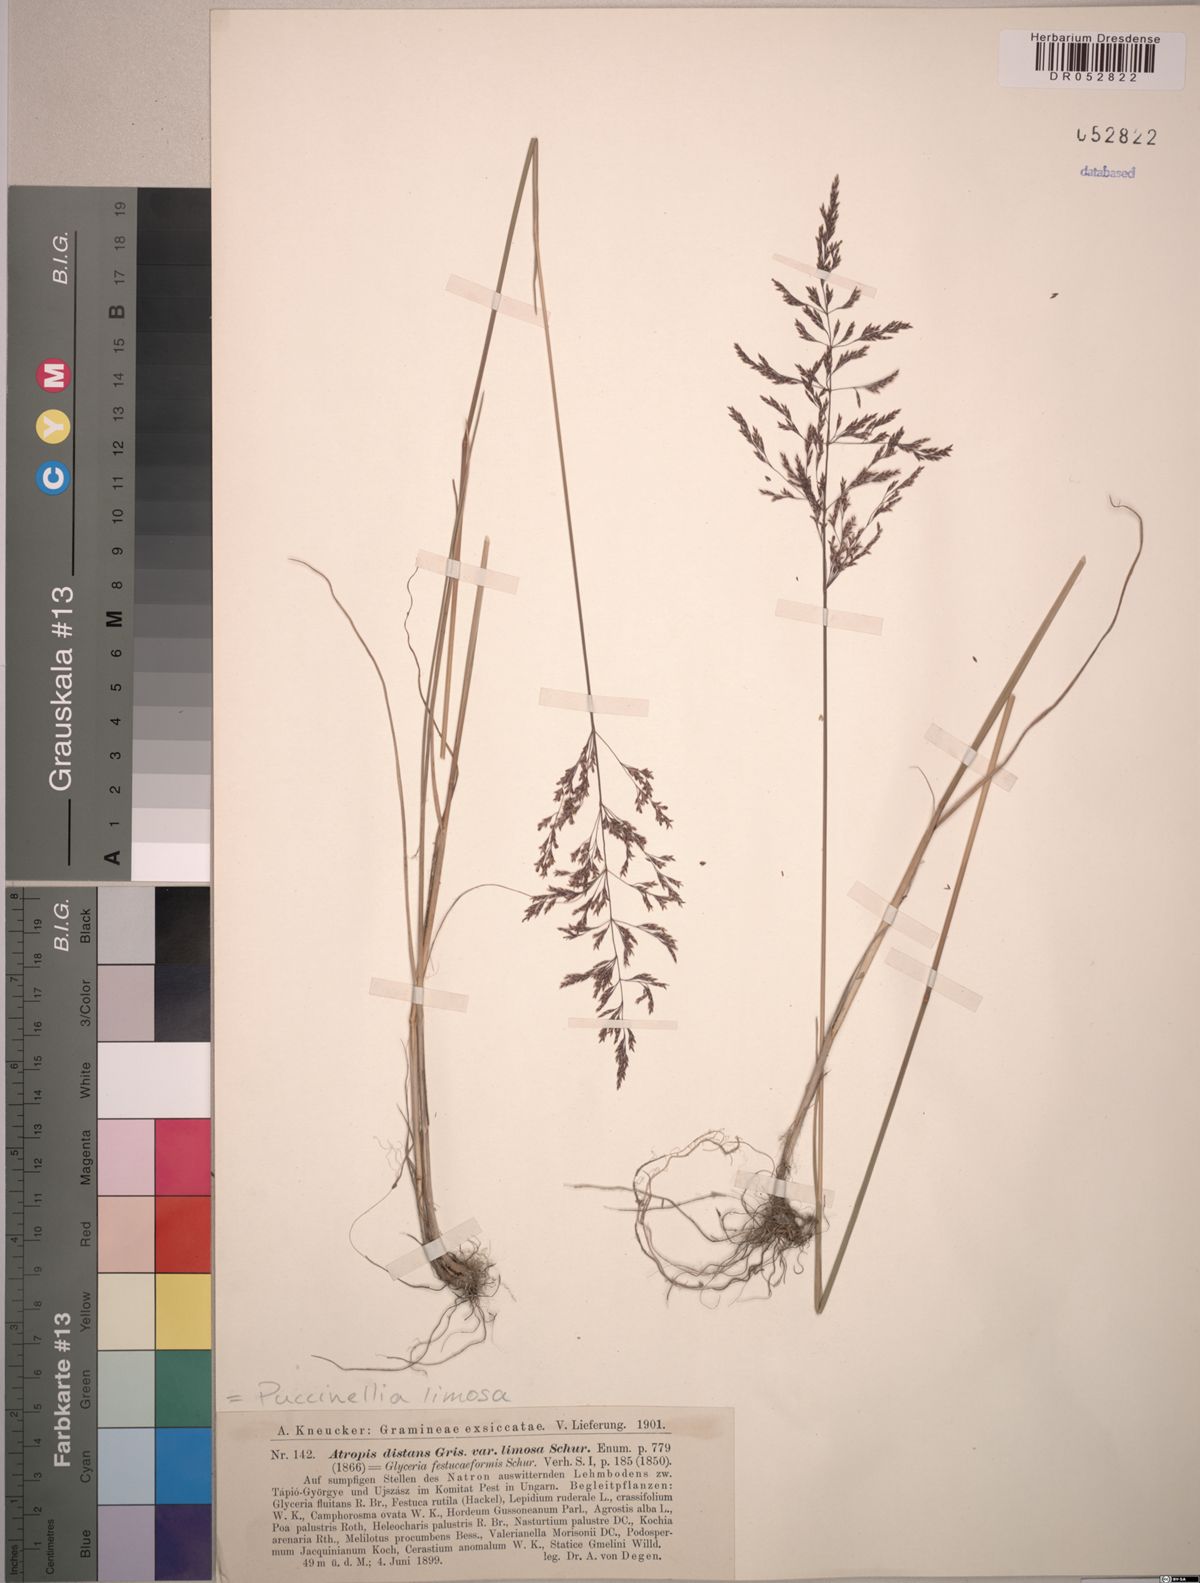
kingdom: Plantae
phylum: Tracheophyta
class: Liliopsida
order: Poales
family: Poaceae
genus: Puccinellia
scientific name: Puccinellia distans
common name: Weeping alkaligrass
